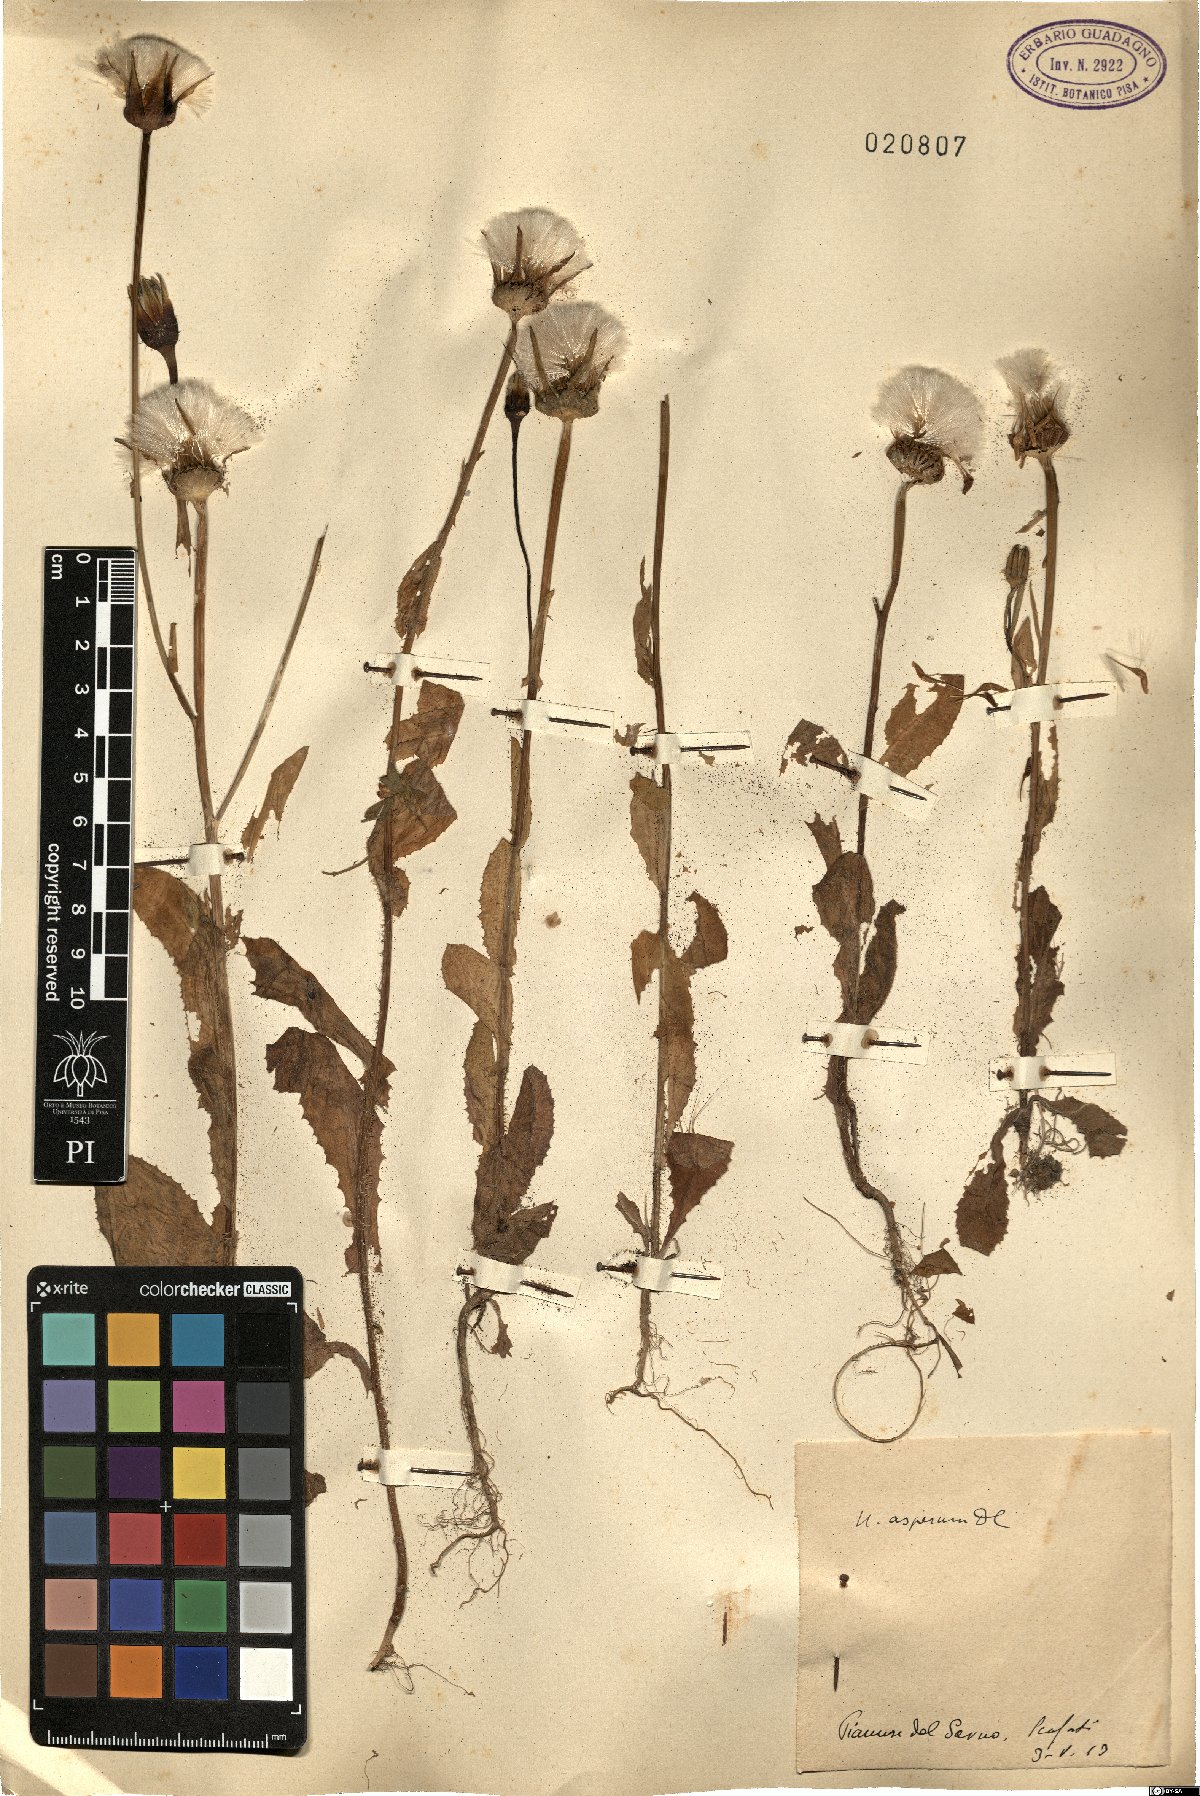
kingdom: Plantae
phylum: Tracheophyta
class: Magnoliopsida
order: Asterales
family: Asteraceae
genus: Urospermum
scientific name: Urospermum picroides
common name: False hawkbit
